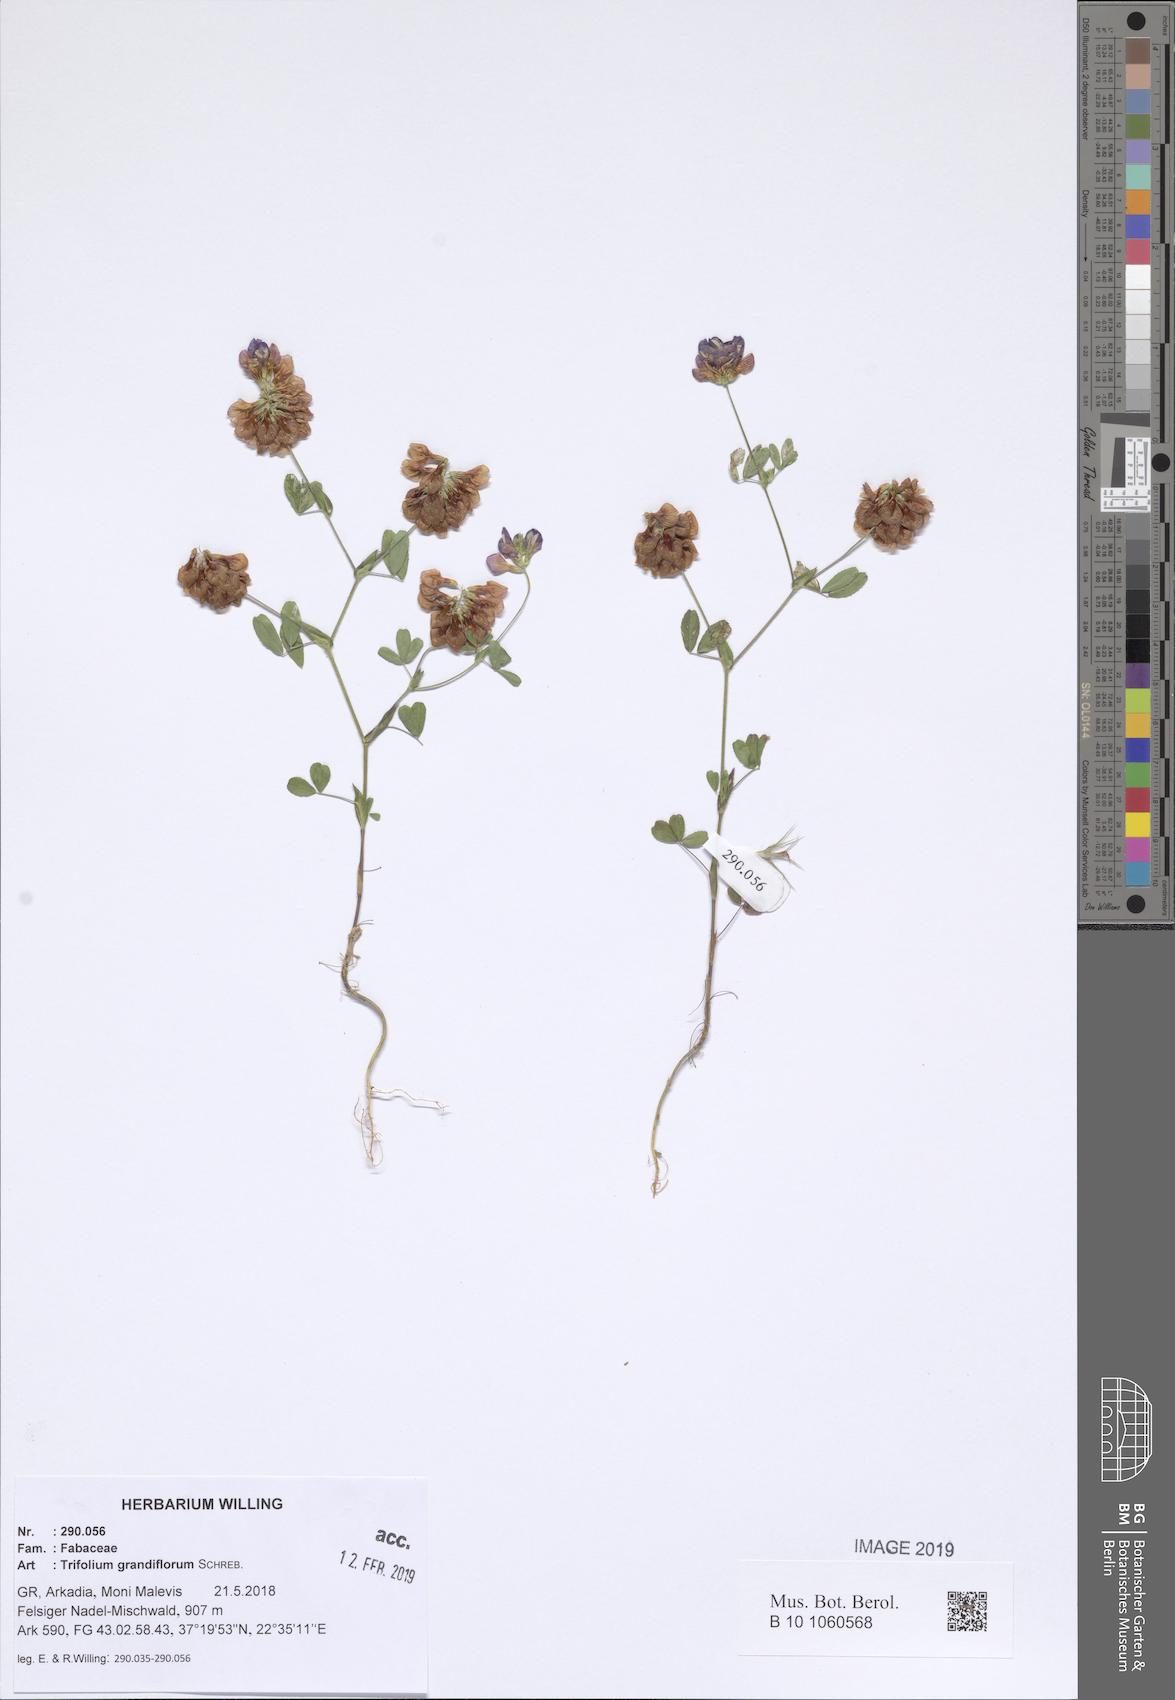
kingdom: Plantae
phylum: Tracheophyta
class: Magnoliopsida
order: Fabales
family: Fabaceae
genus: Trifolium
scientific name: Trifolium grandiflorum
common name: Large-flower hop clover
